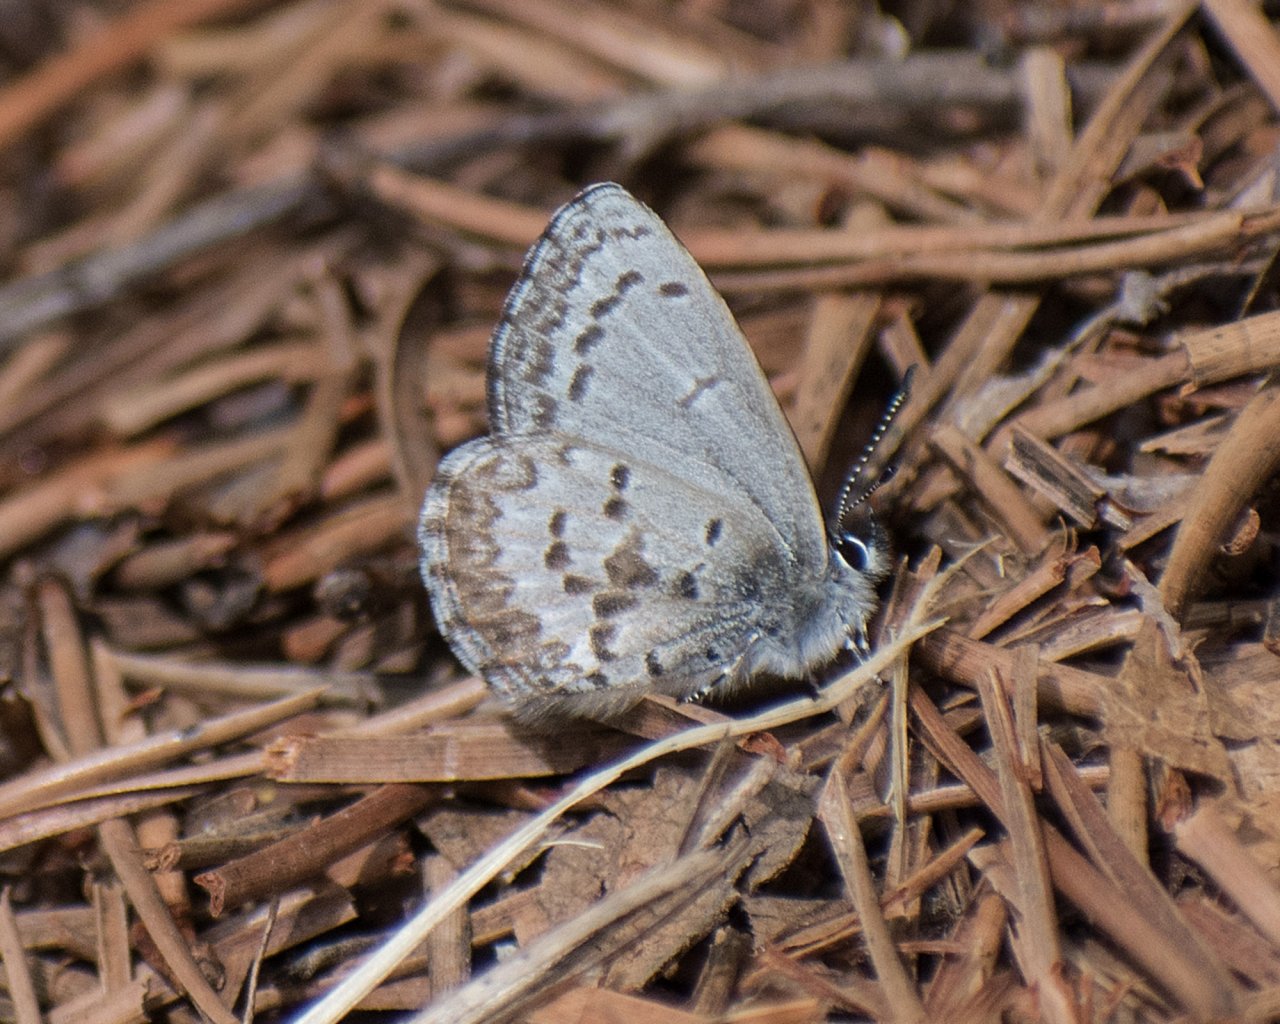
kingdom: Animalia
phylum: Arthropoda
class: Insecta
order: Lepidoptera
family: Lycaenidae
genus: Celastrina
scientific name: Celastrina ladon
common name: Echo Azure
